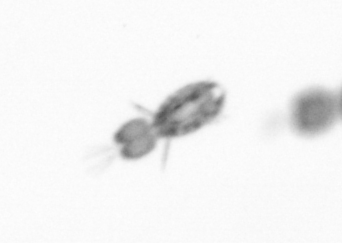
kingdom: Animalia
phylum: Arthropoda
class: Copepoda
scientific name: Copepoda
